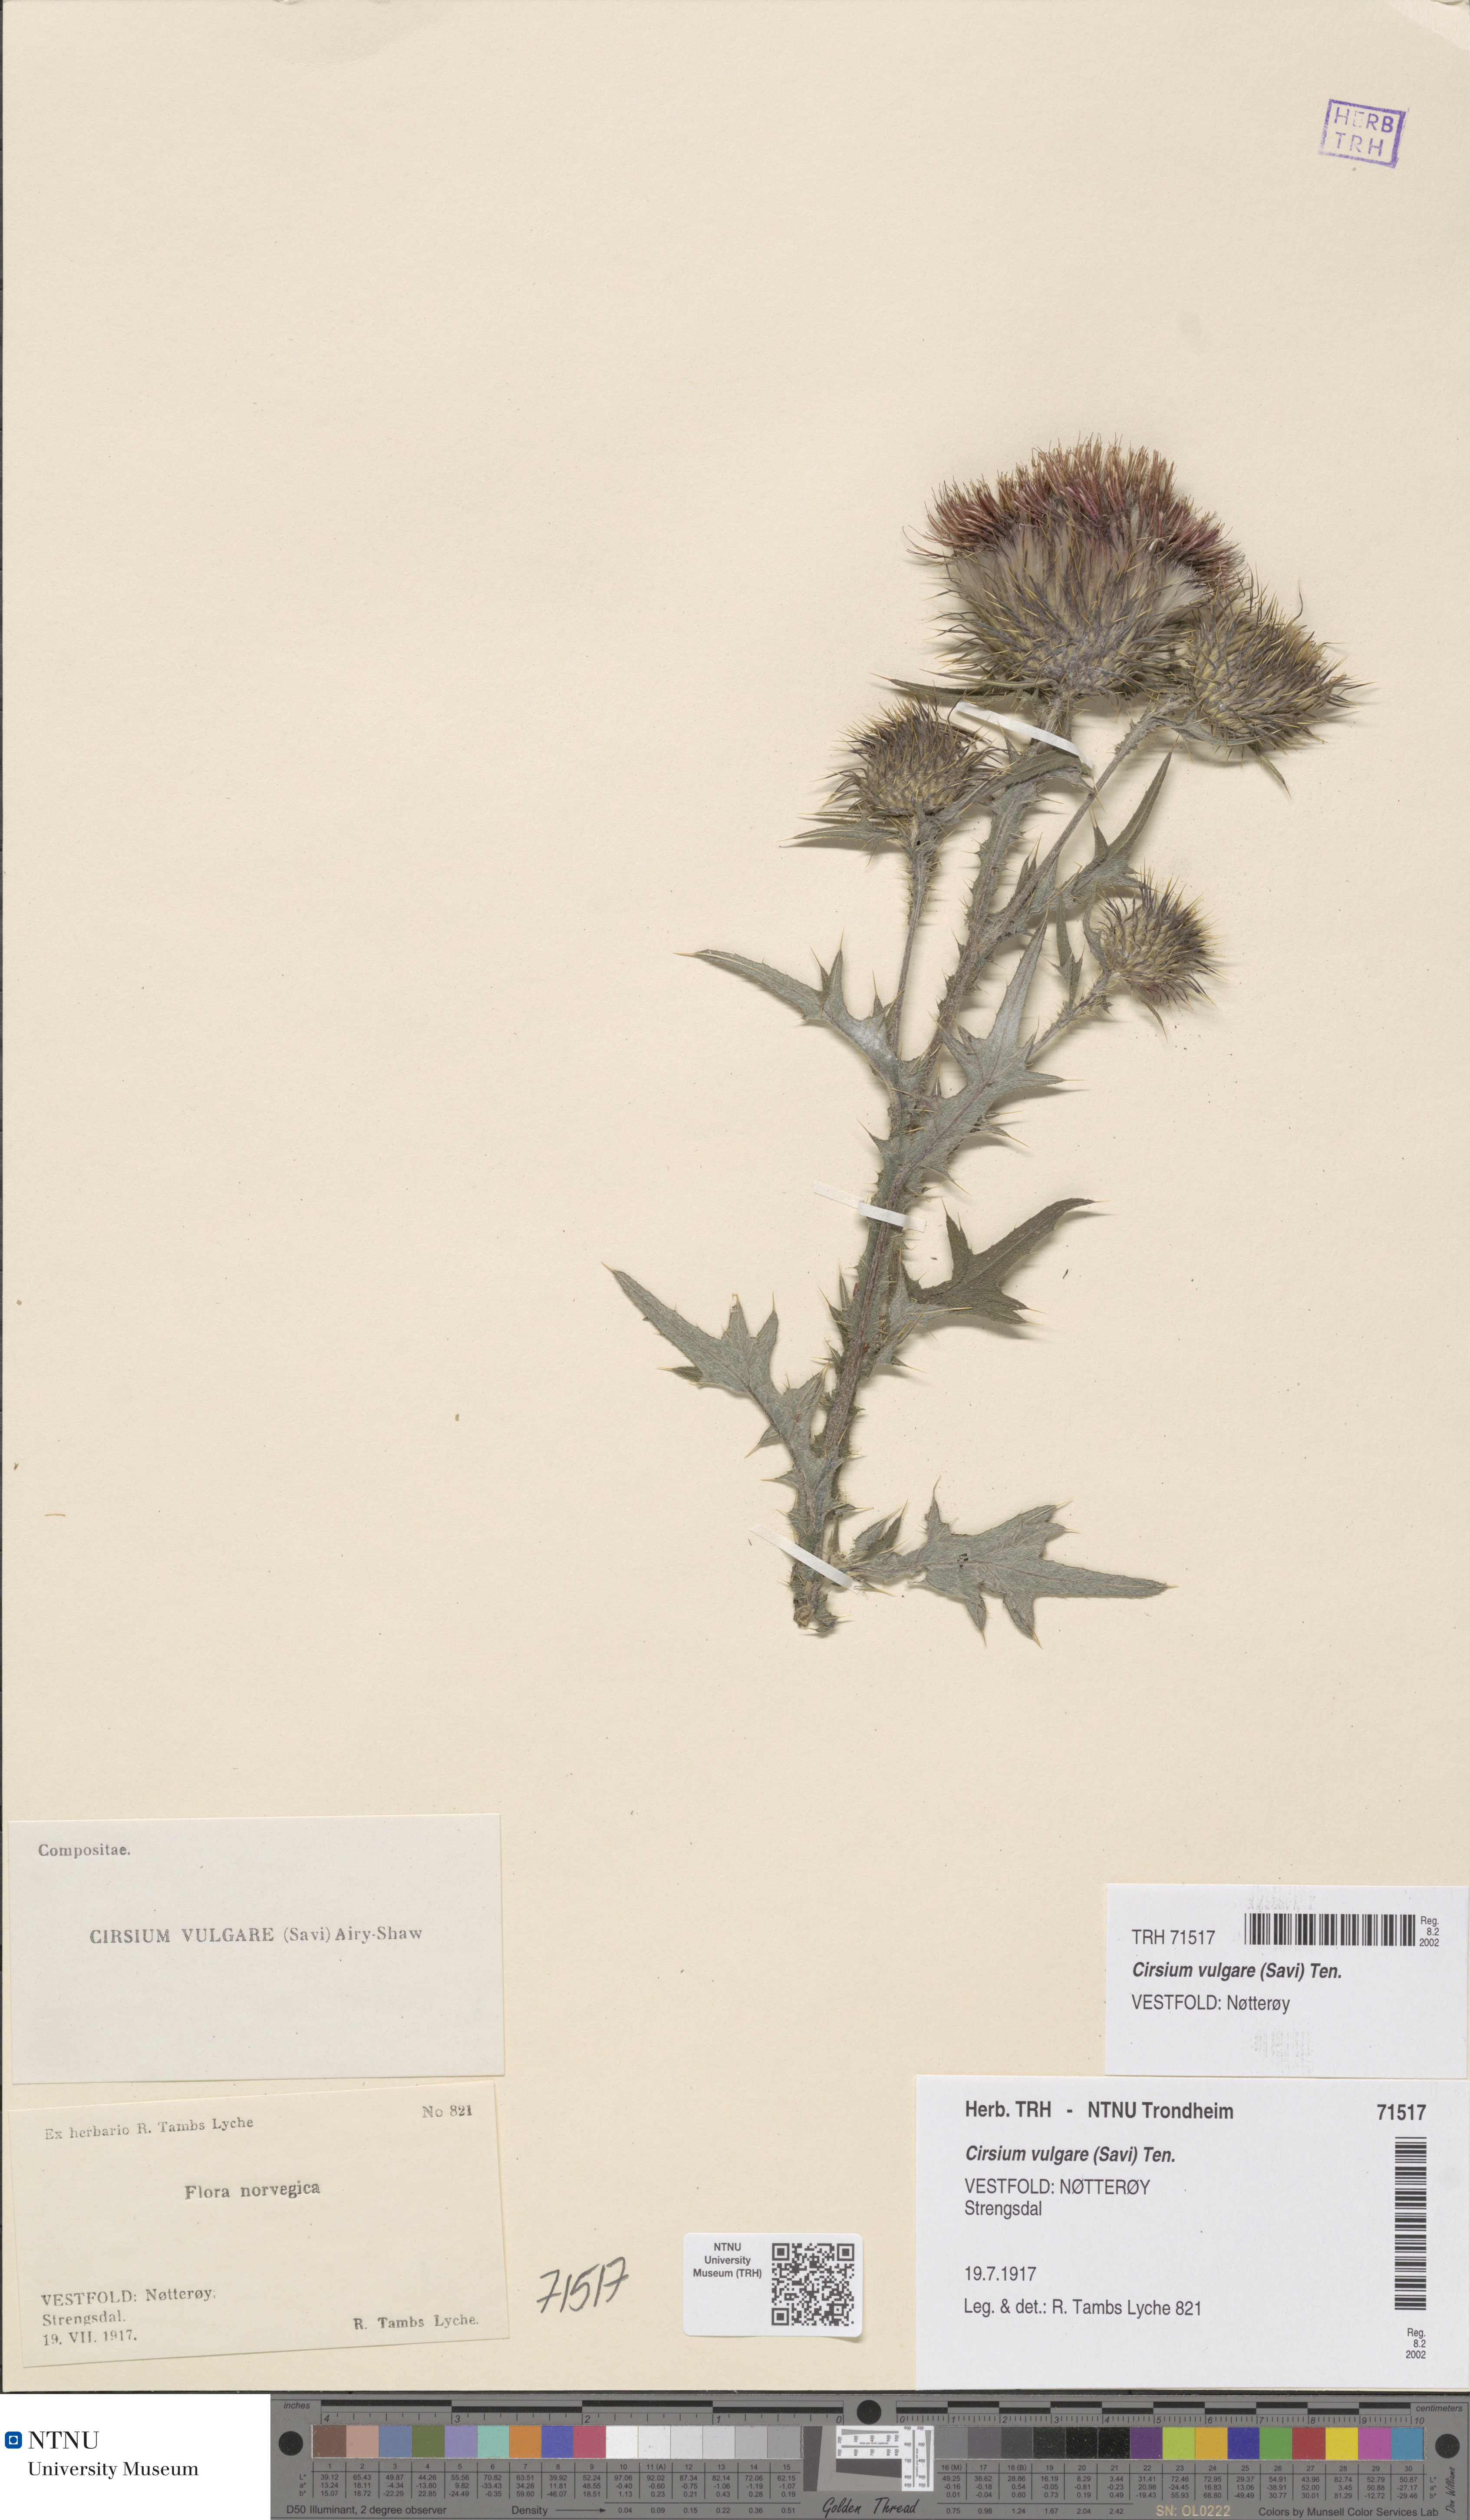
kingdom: Plantae
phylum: Tracheophyta
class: Magnoliopsida
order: Asterales
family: Asteraceae
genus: Cirsium
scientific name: Cirsium vulgare
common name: Bull thistle
